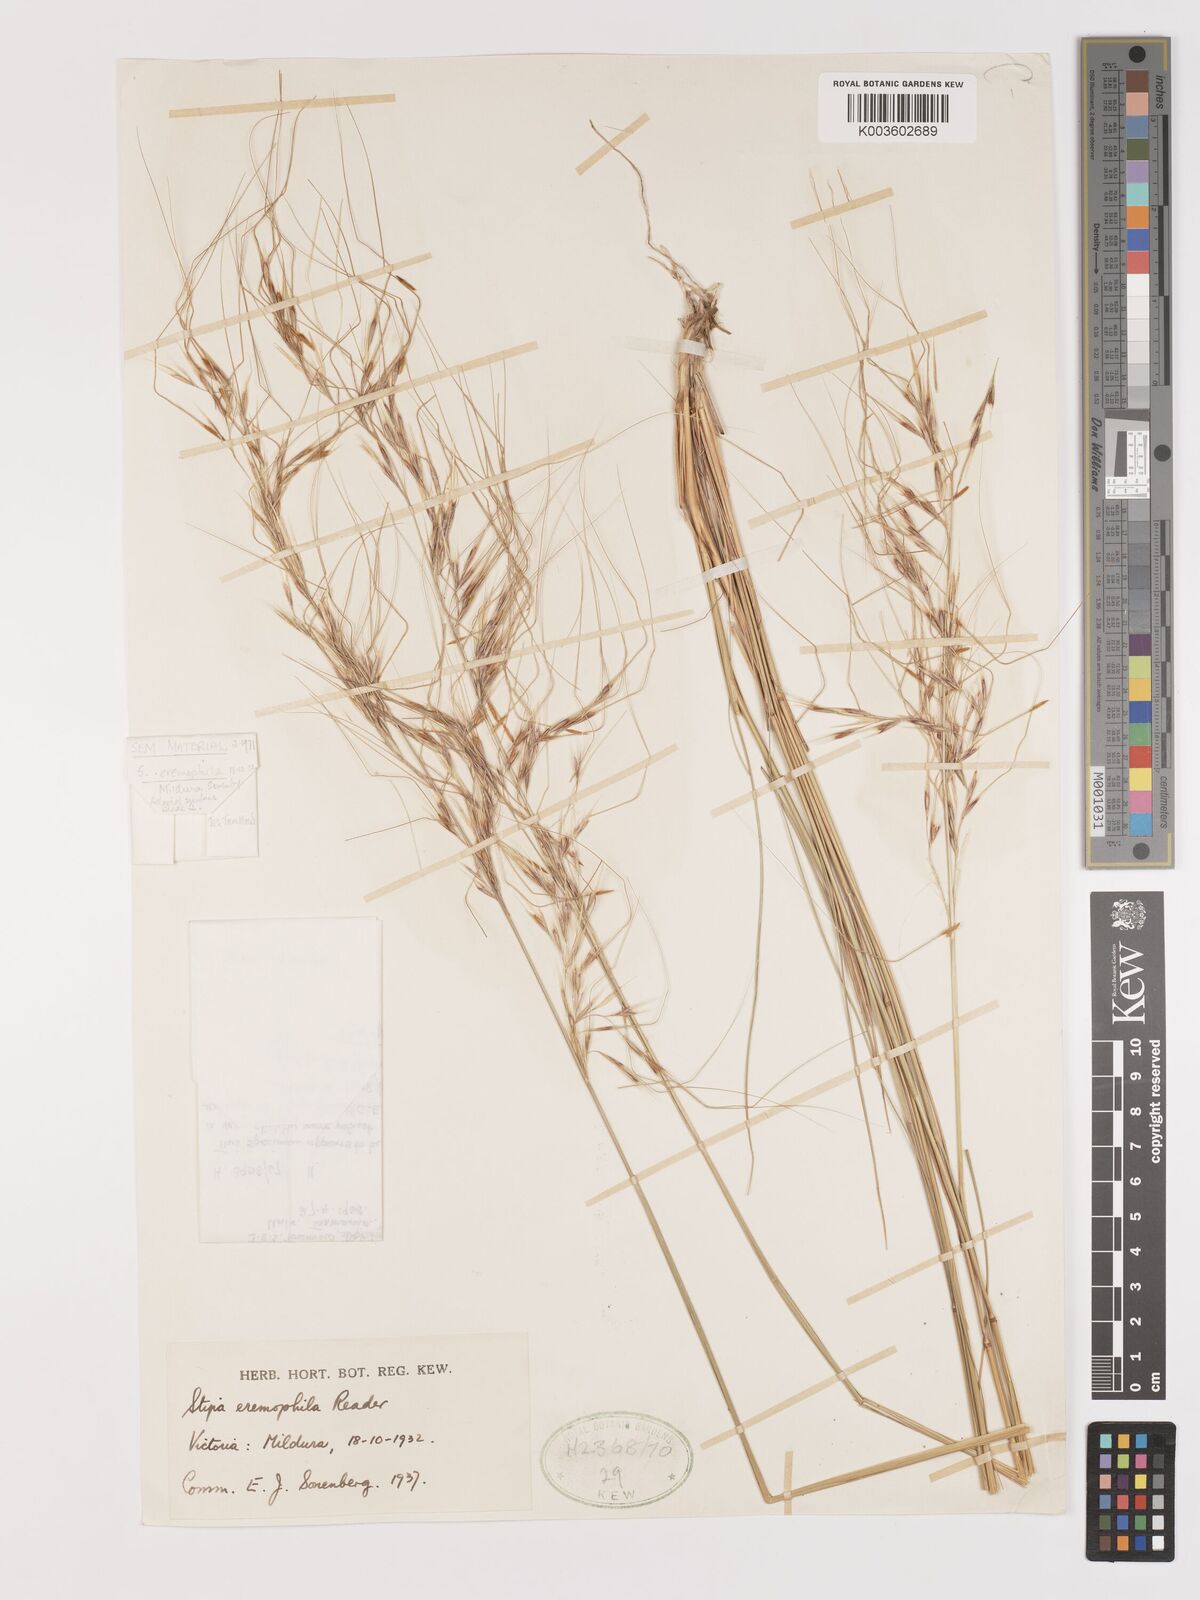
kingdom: Plantae
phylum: Tracheophyta
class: Liliopsida
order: Poales
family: Poaceae
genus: Austrostipa
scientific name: Austrostipa eremophila
